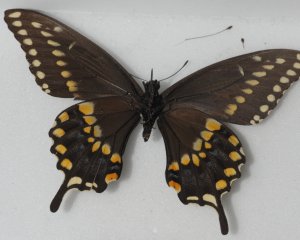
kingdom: Animalia
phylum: Arthropoda
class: Insecta
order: Lepidoptera
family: Papilionidae
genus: Papilio
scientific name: Papilio polyxenes
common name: Black Swallowtail
